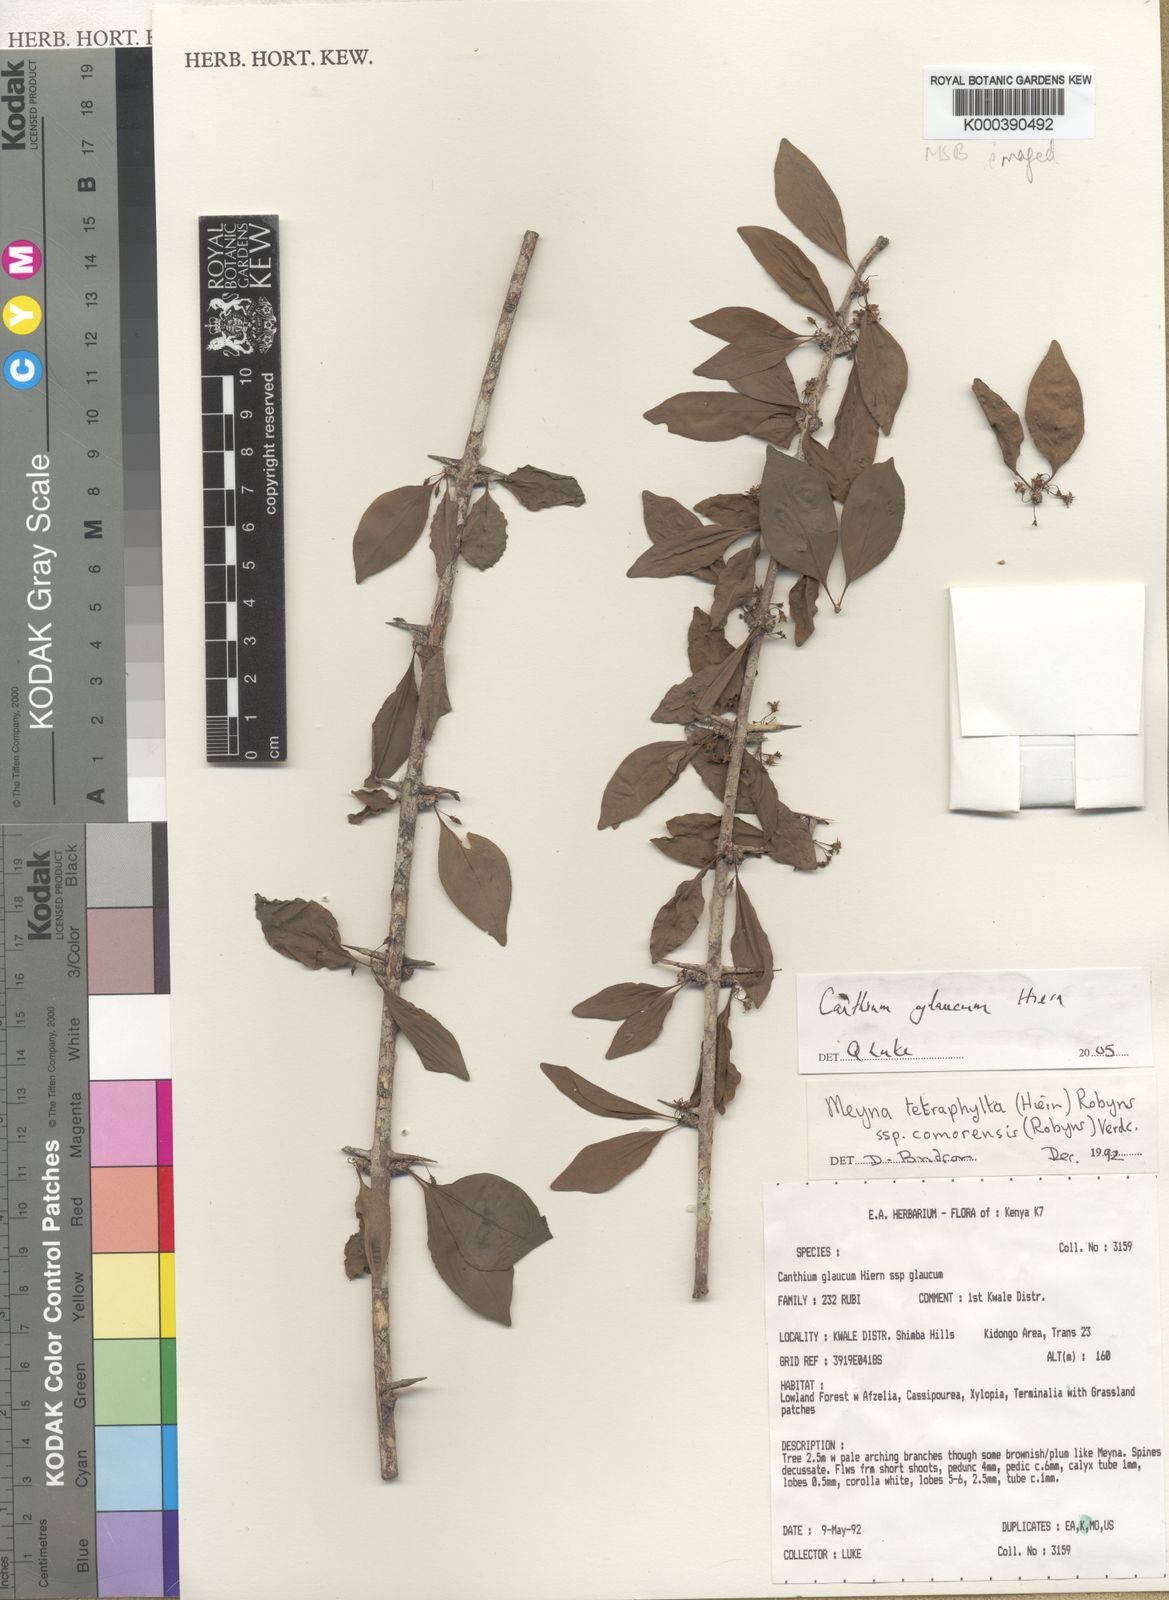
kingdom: Plantae
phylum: Tracheophyta
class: Magnoliopsida
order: Gentianales
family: Rubiaceae
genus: Canthium
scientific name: Canthium glaucum
